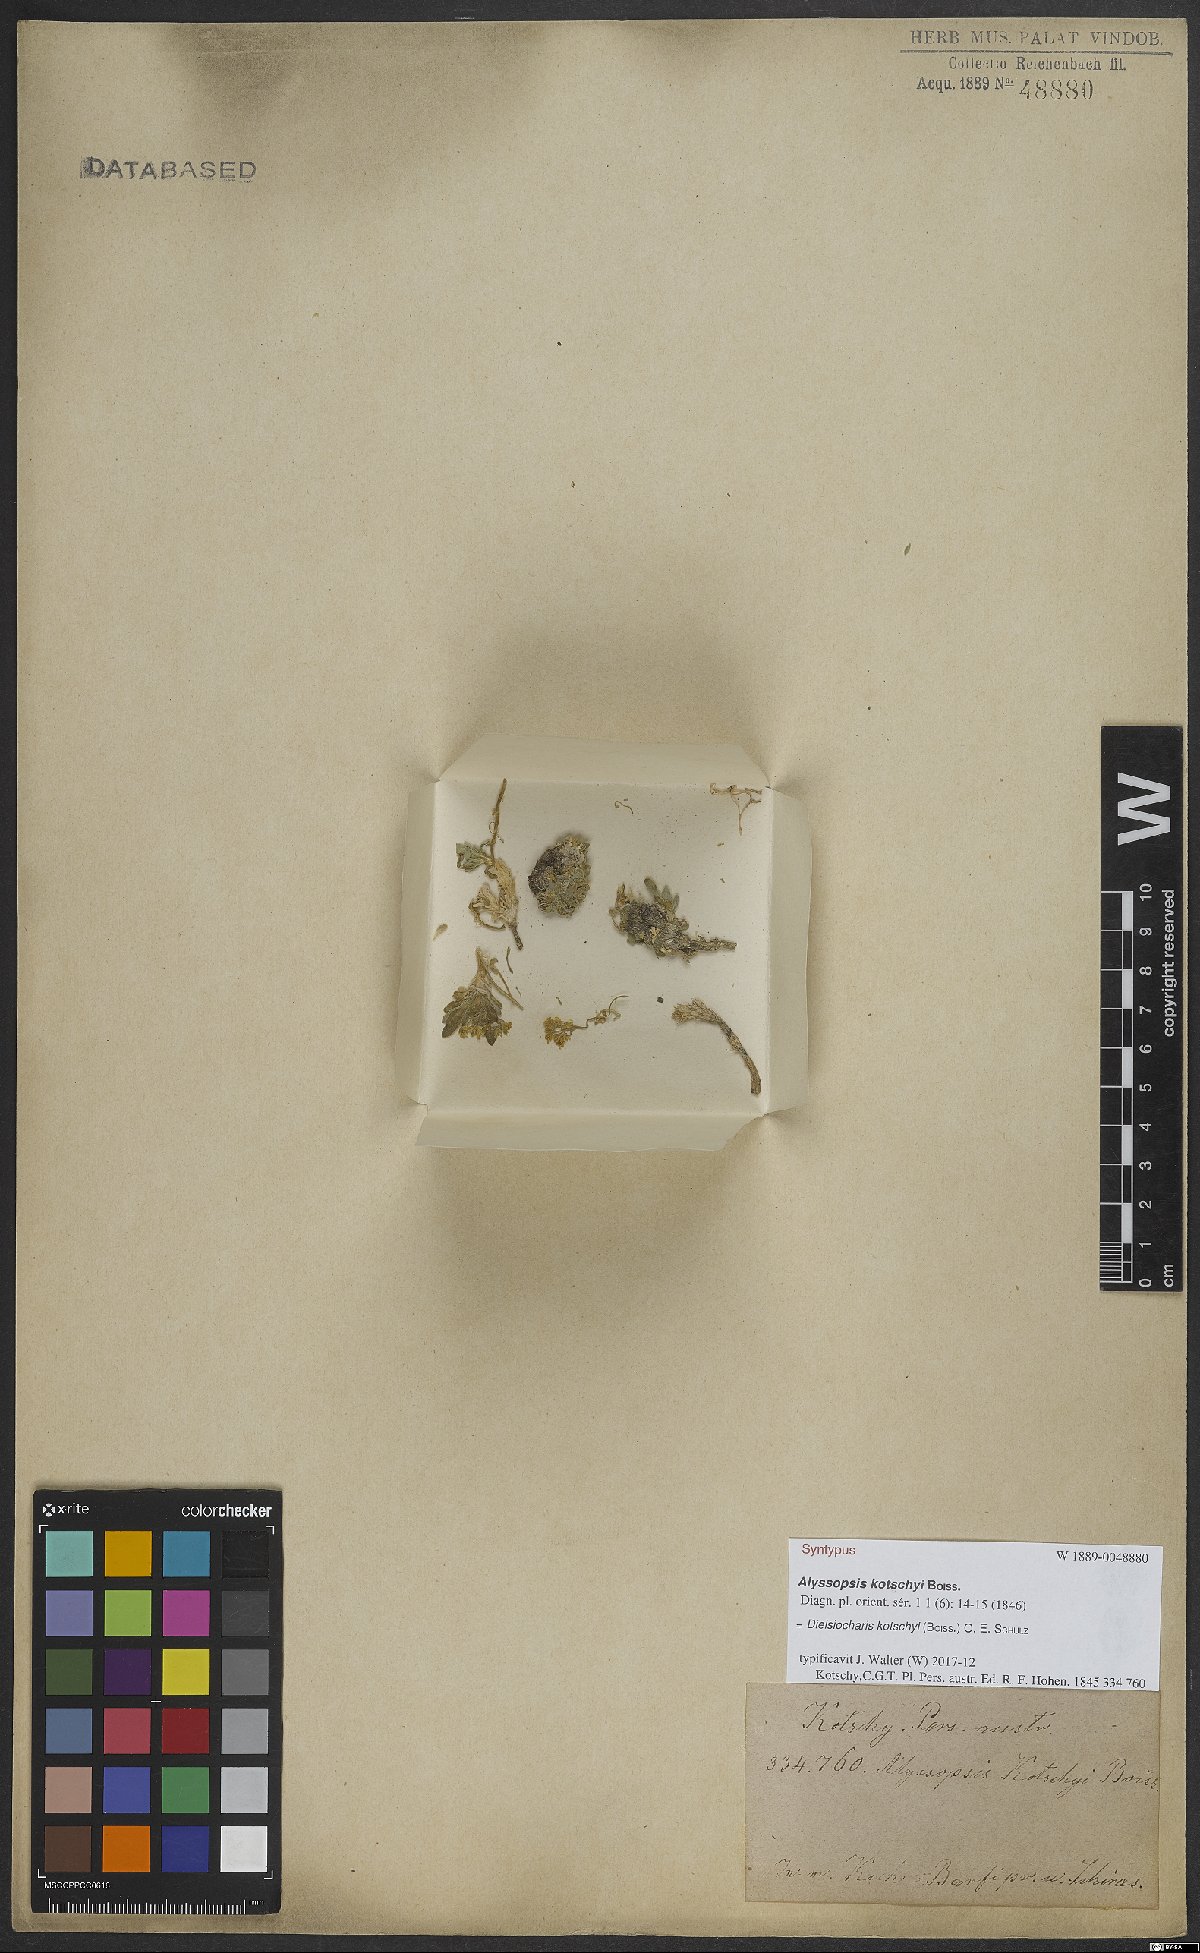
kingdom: Plantae
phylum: Tracheophyta
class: Magnoliopsida
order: Brassicales
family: Brassicaceae
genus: Dielsiocharis
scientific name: Dielsiocharis kotschyi
